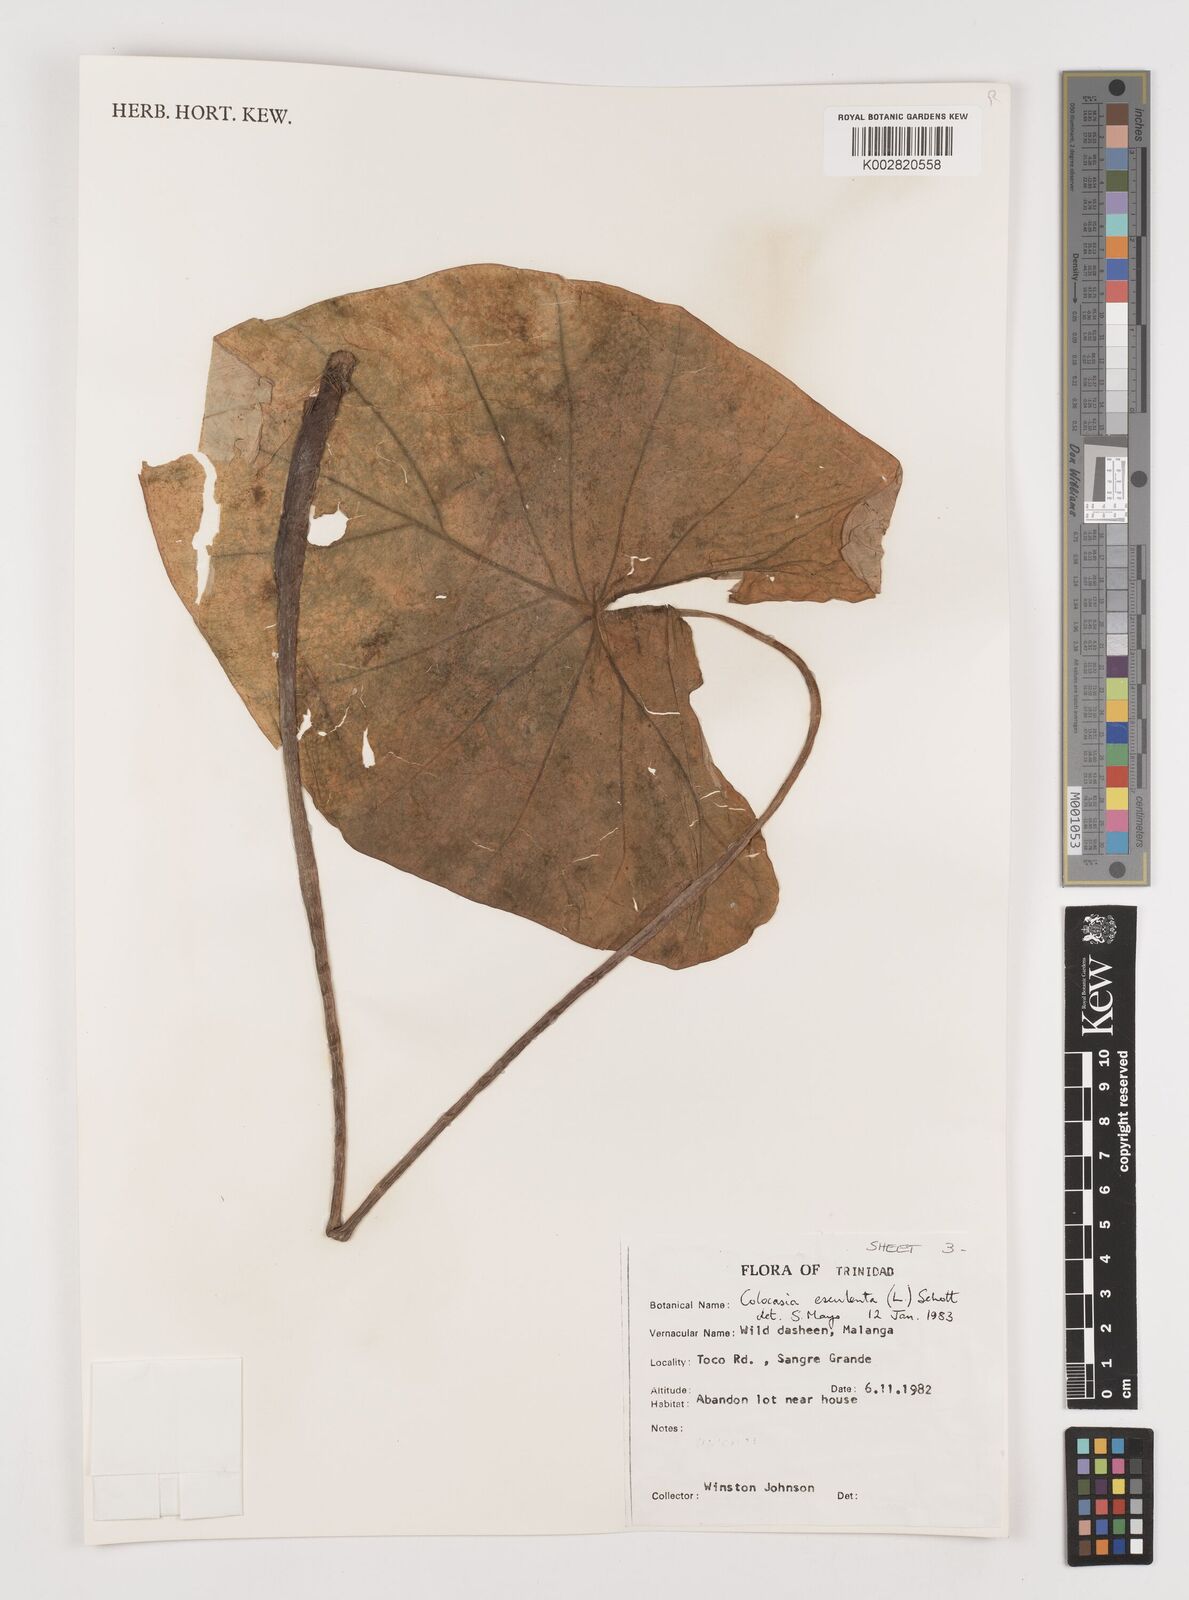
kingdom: Plantae
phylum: Tracheophyta
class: Liliopsida
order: Alismatales
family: Araceae
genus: Colocasia
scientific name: Colocasia esculenta
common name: Taro
